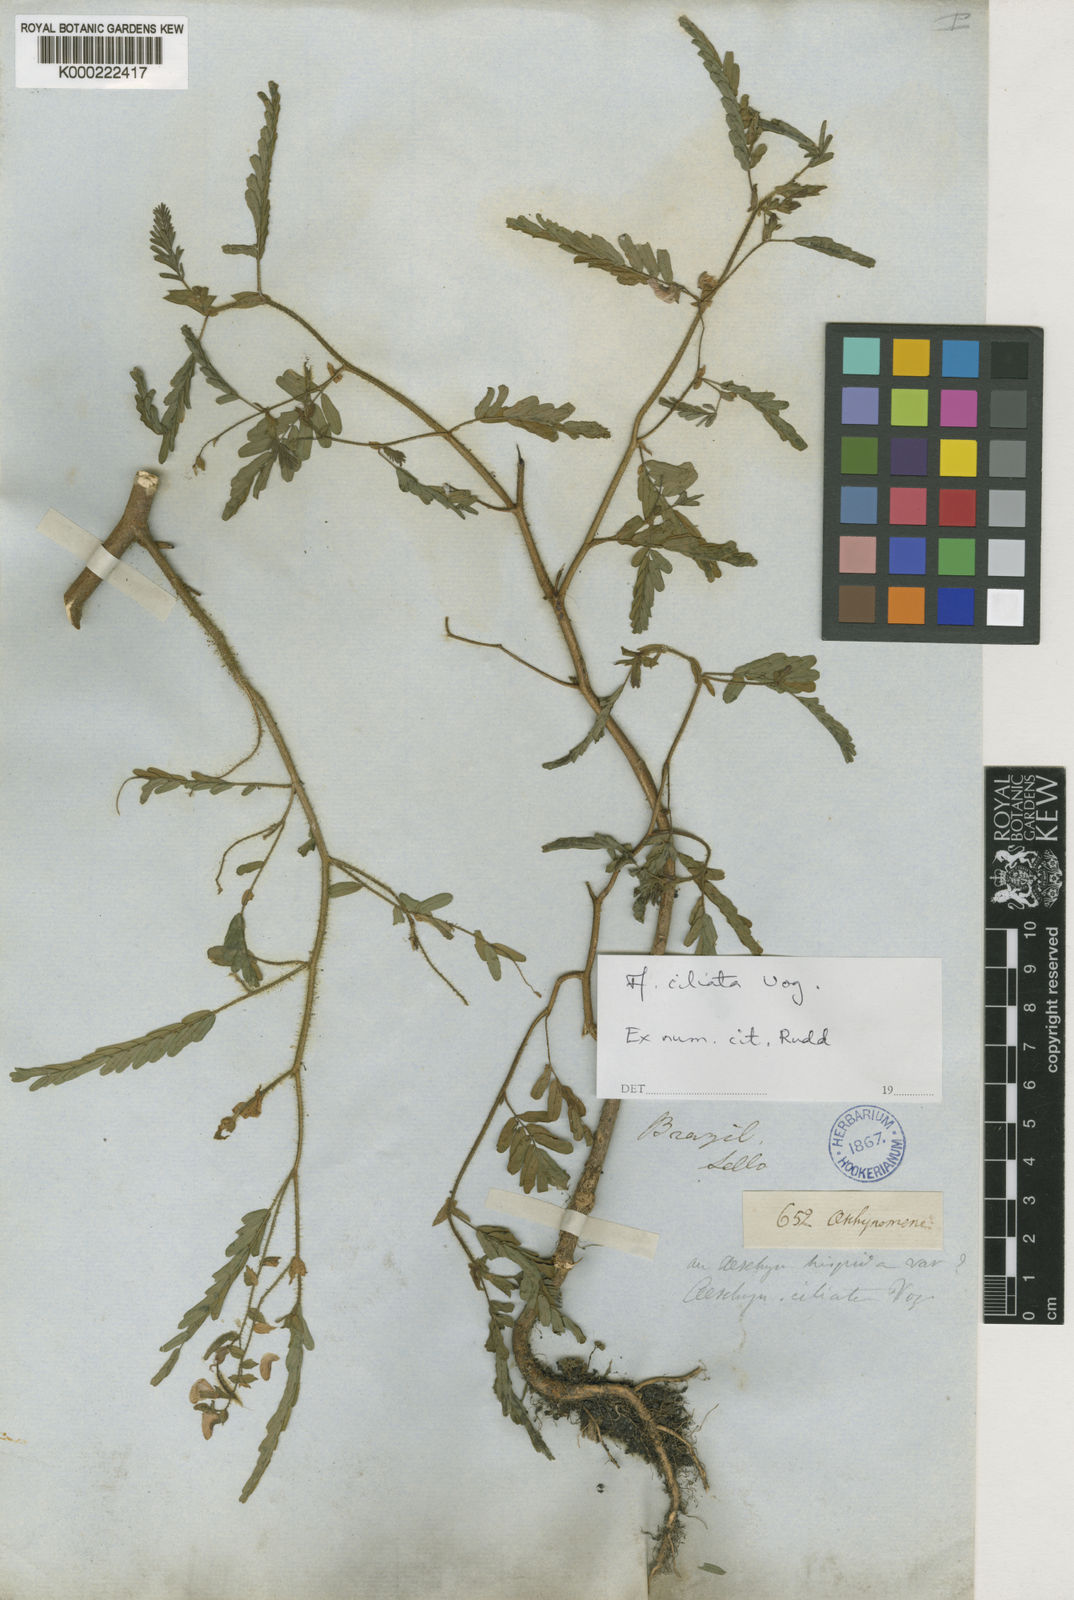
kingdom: Plantae
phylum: Tracheophyta
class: Magnoliopsida
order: Fabales
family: Fabaceae
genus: Aeschynomene
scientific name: Aeschynomene ciliata
